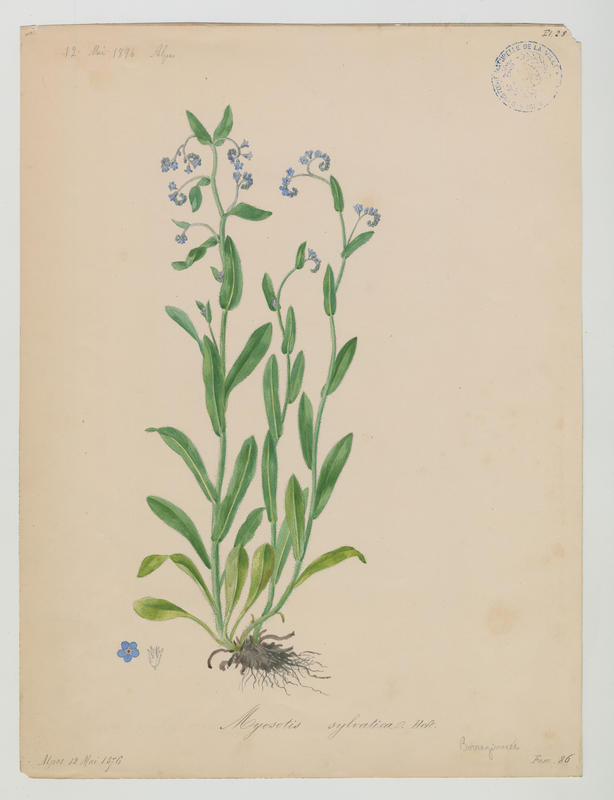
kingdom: Plantae
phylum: Tracheophyta
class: Magnoliopsida
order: Boraginales
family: Boraginaceae
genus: Myosotis
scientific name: Myosotis sylvatica
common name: Wood forget-me-not
